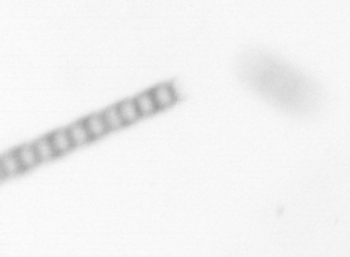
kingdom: Chromista
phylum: Ochrophyta
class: Bacillariophyceae
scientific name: Bacillariophyceae
